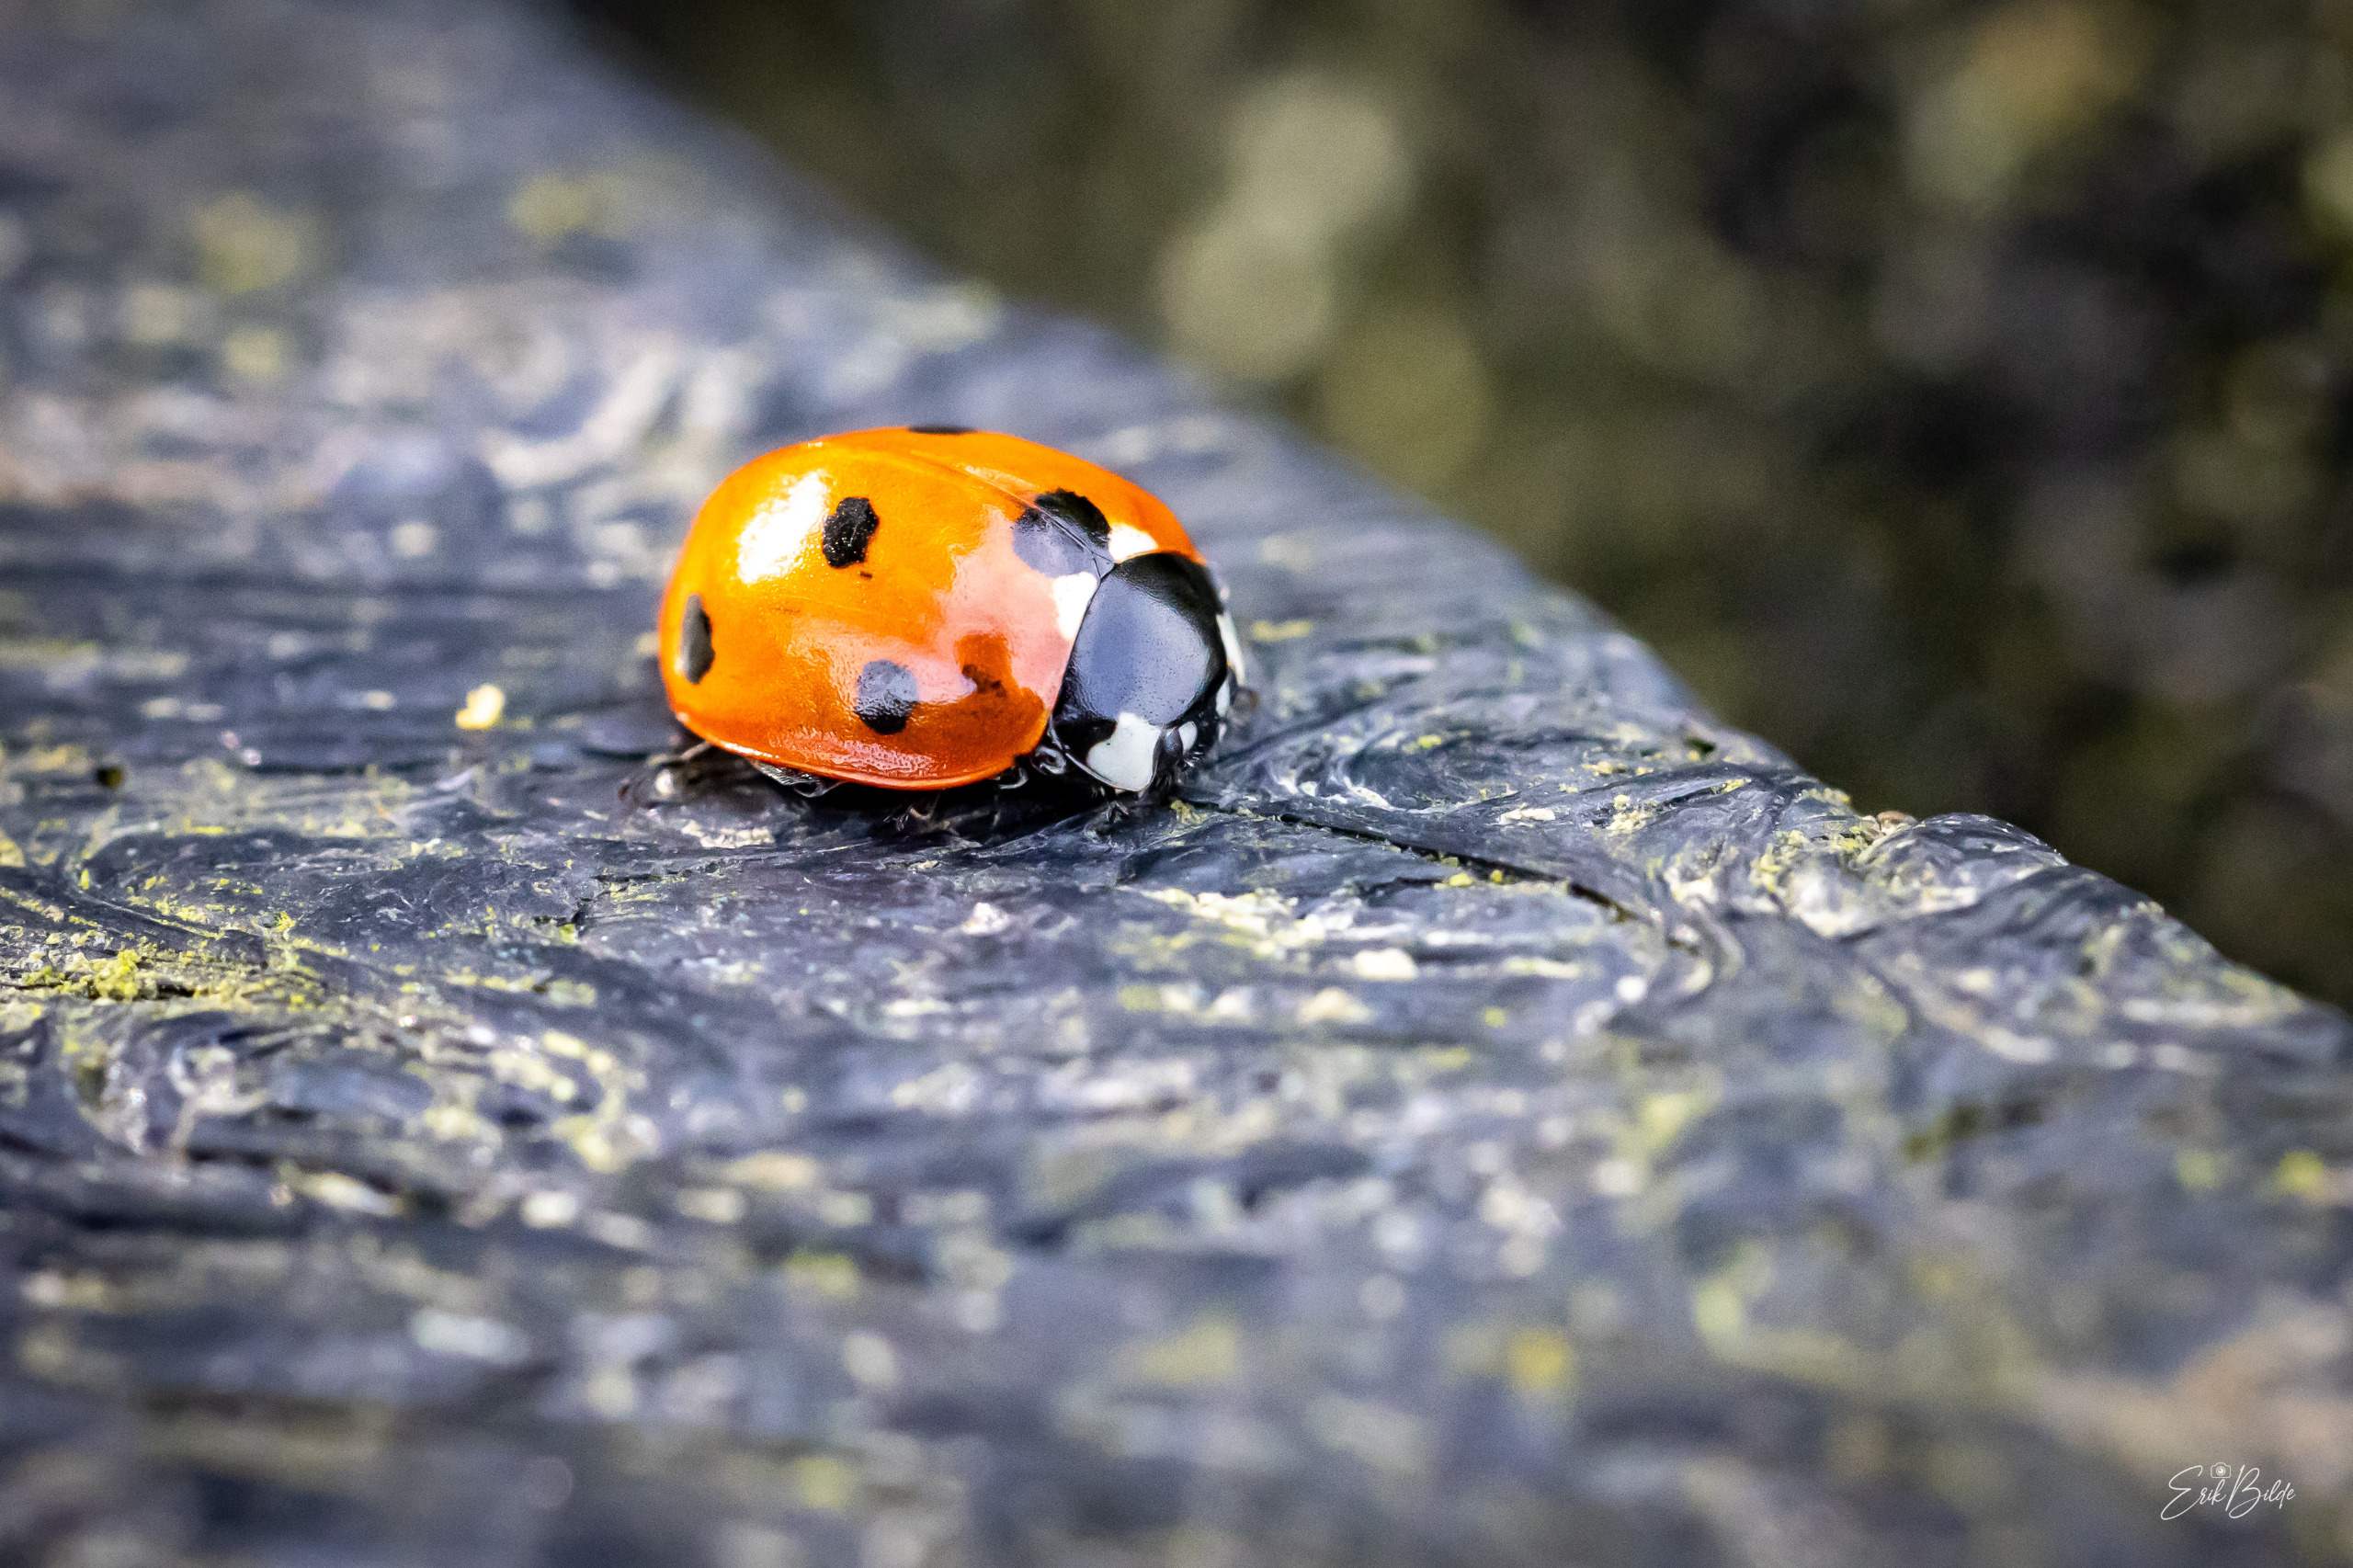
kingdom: Animalia
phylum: Arthropoda
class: Insecta
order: Coleoptera
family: Coccinellidae
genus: Coccinella
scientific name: Coccinella septempunctata
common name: Syvplettet mariehøne
